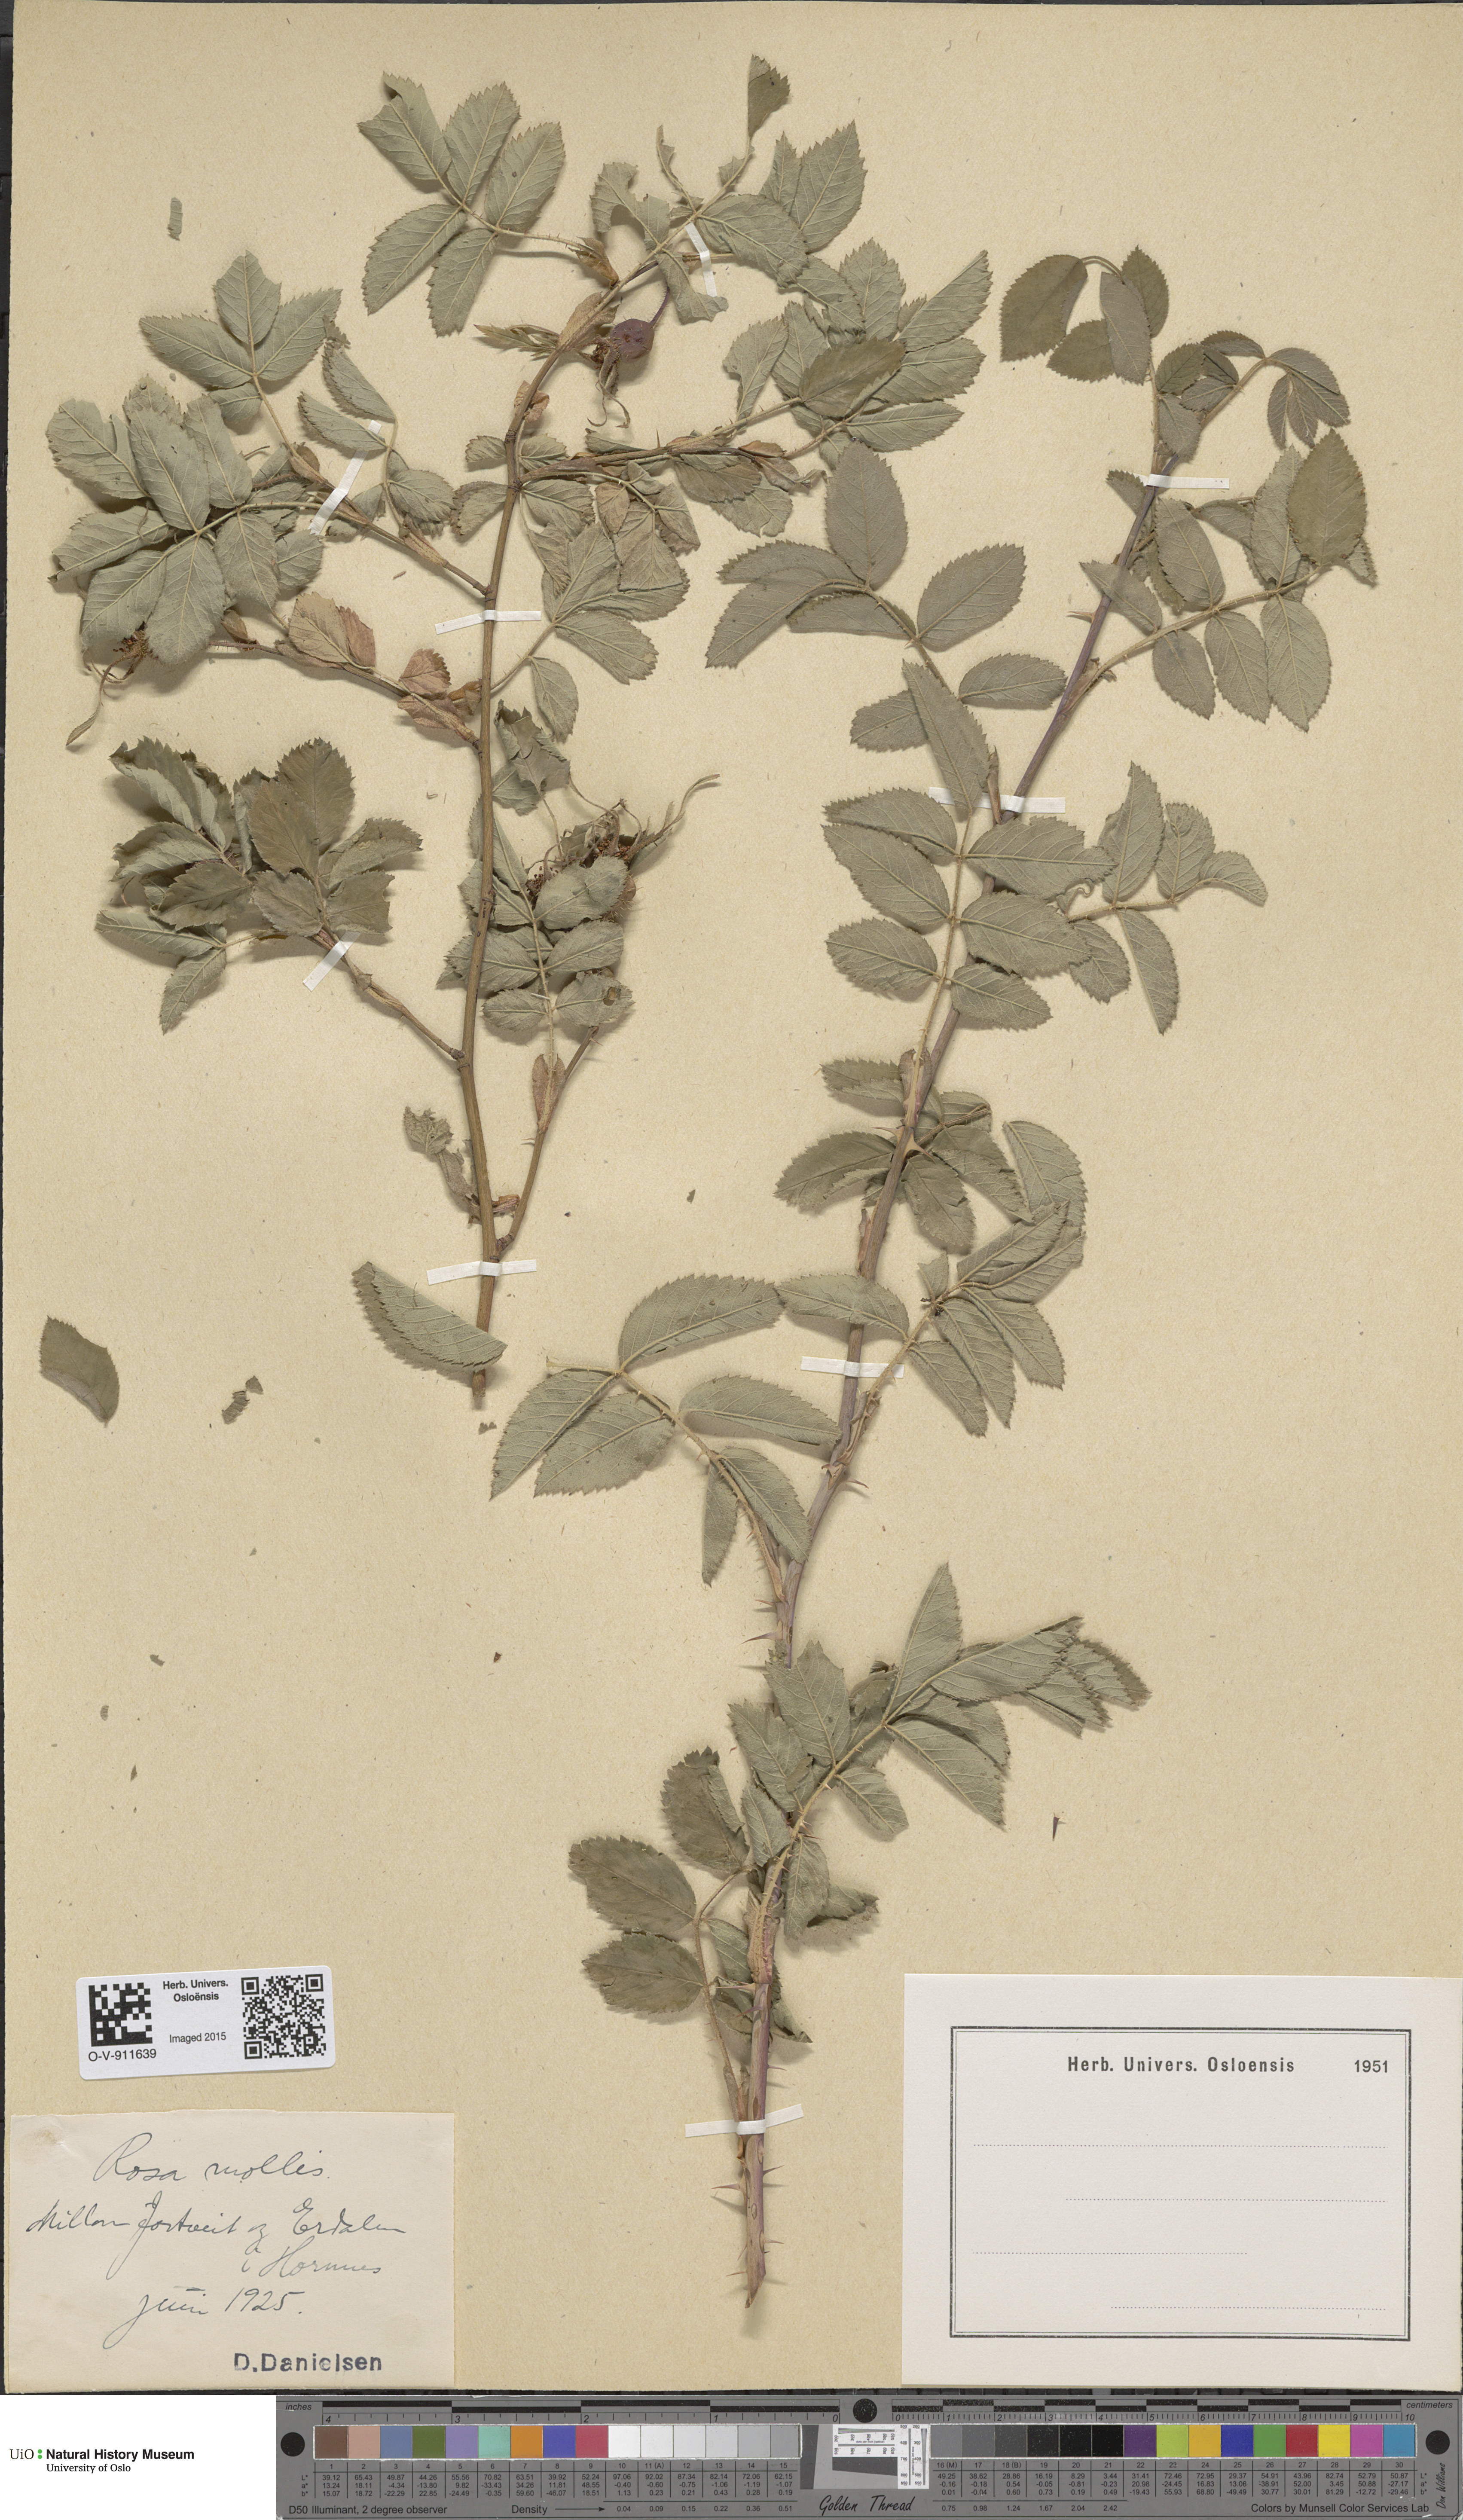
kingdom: Plantae
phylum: Tracheophyta
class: Magnoliopsida
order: Rosales
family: Rosaceae
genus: Rosa
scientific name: Rosa mollis
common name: Rose
